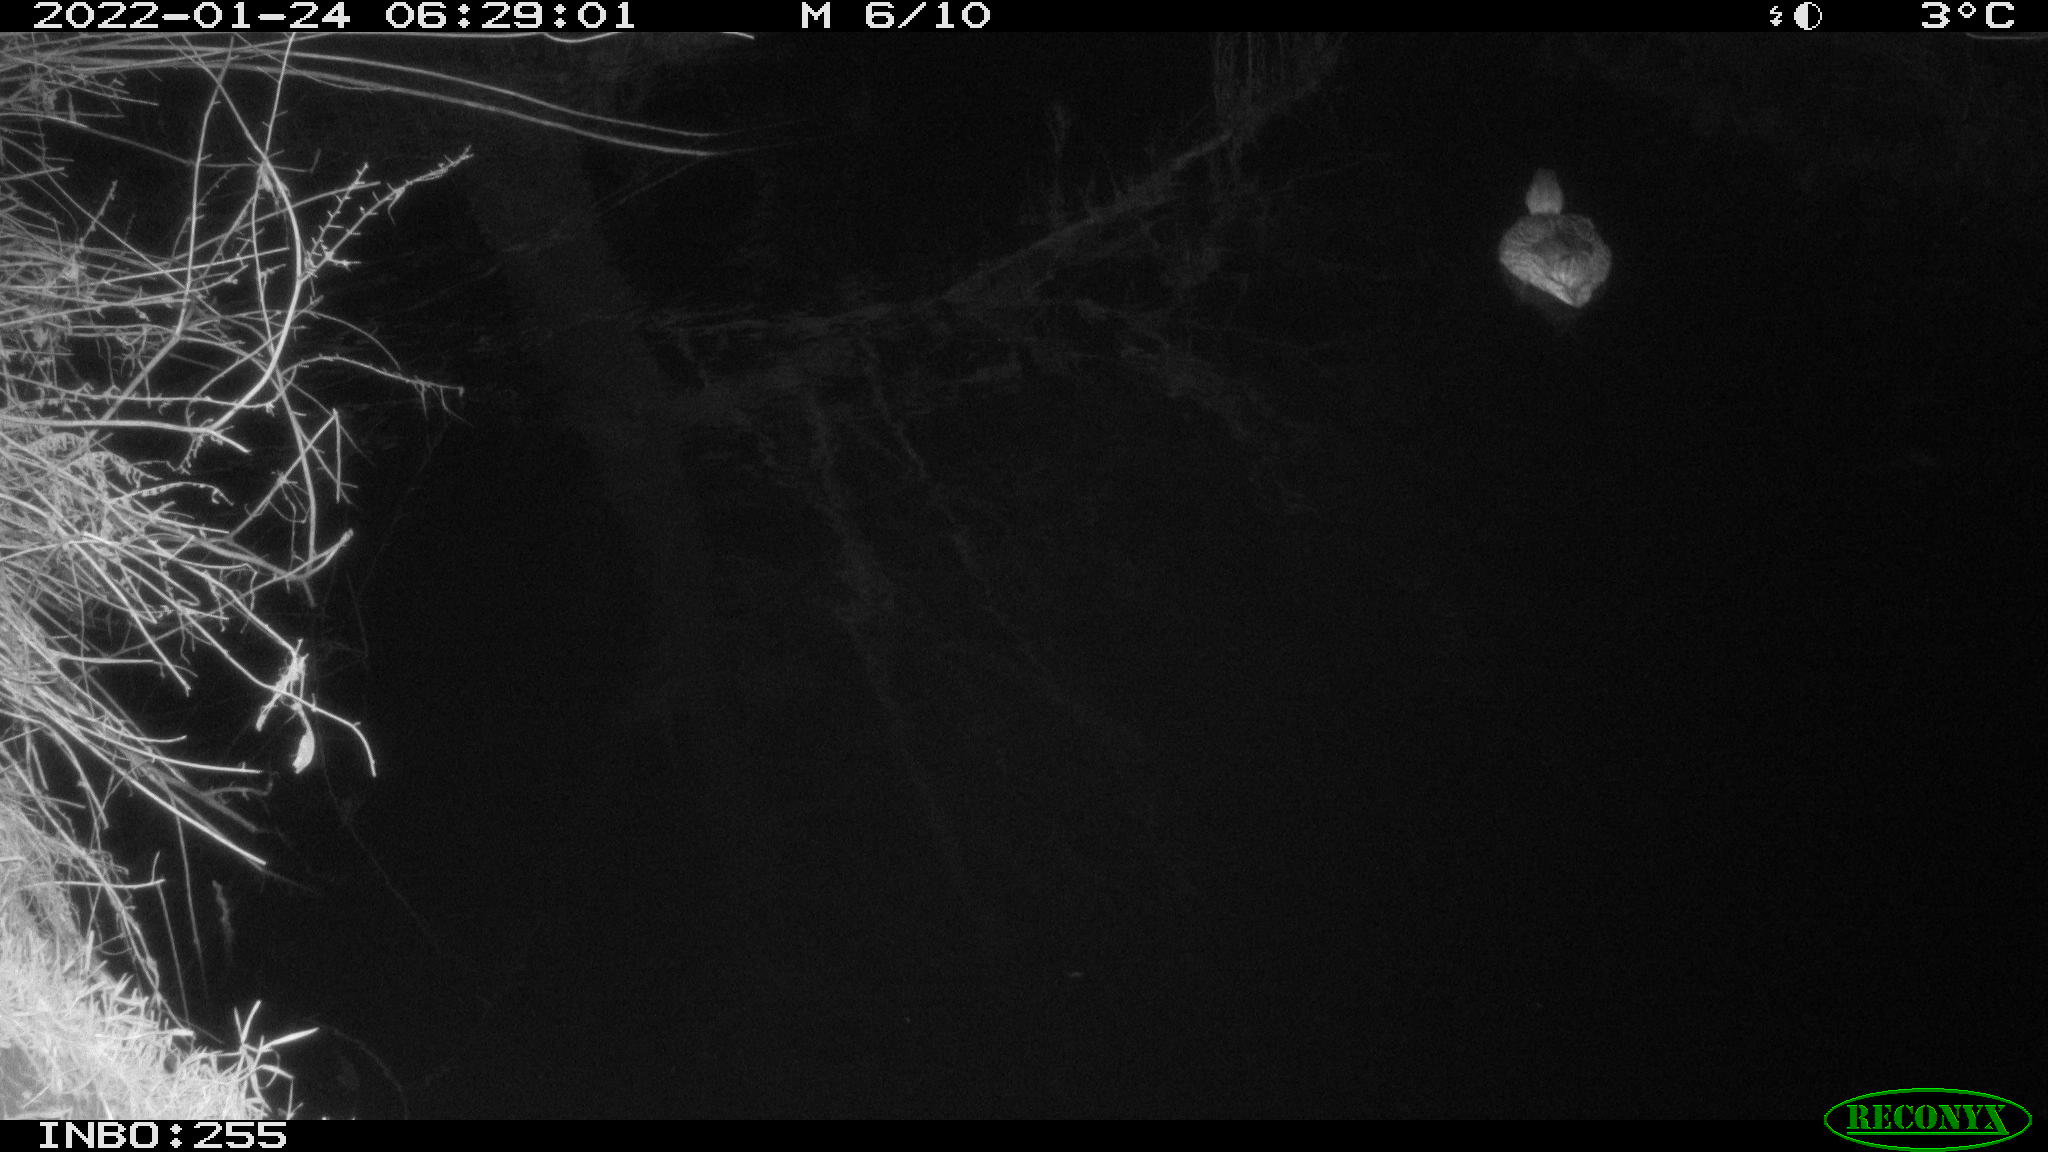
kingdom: Animalia
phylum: Chordata
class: Aves
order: Anseriformes
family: Anatidae
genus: Anas
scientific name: Anas
